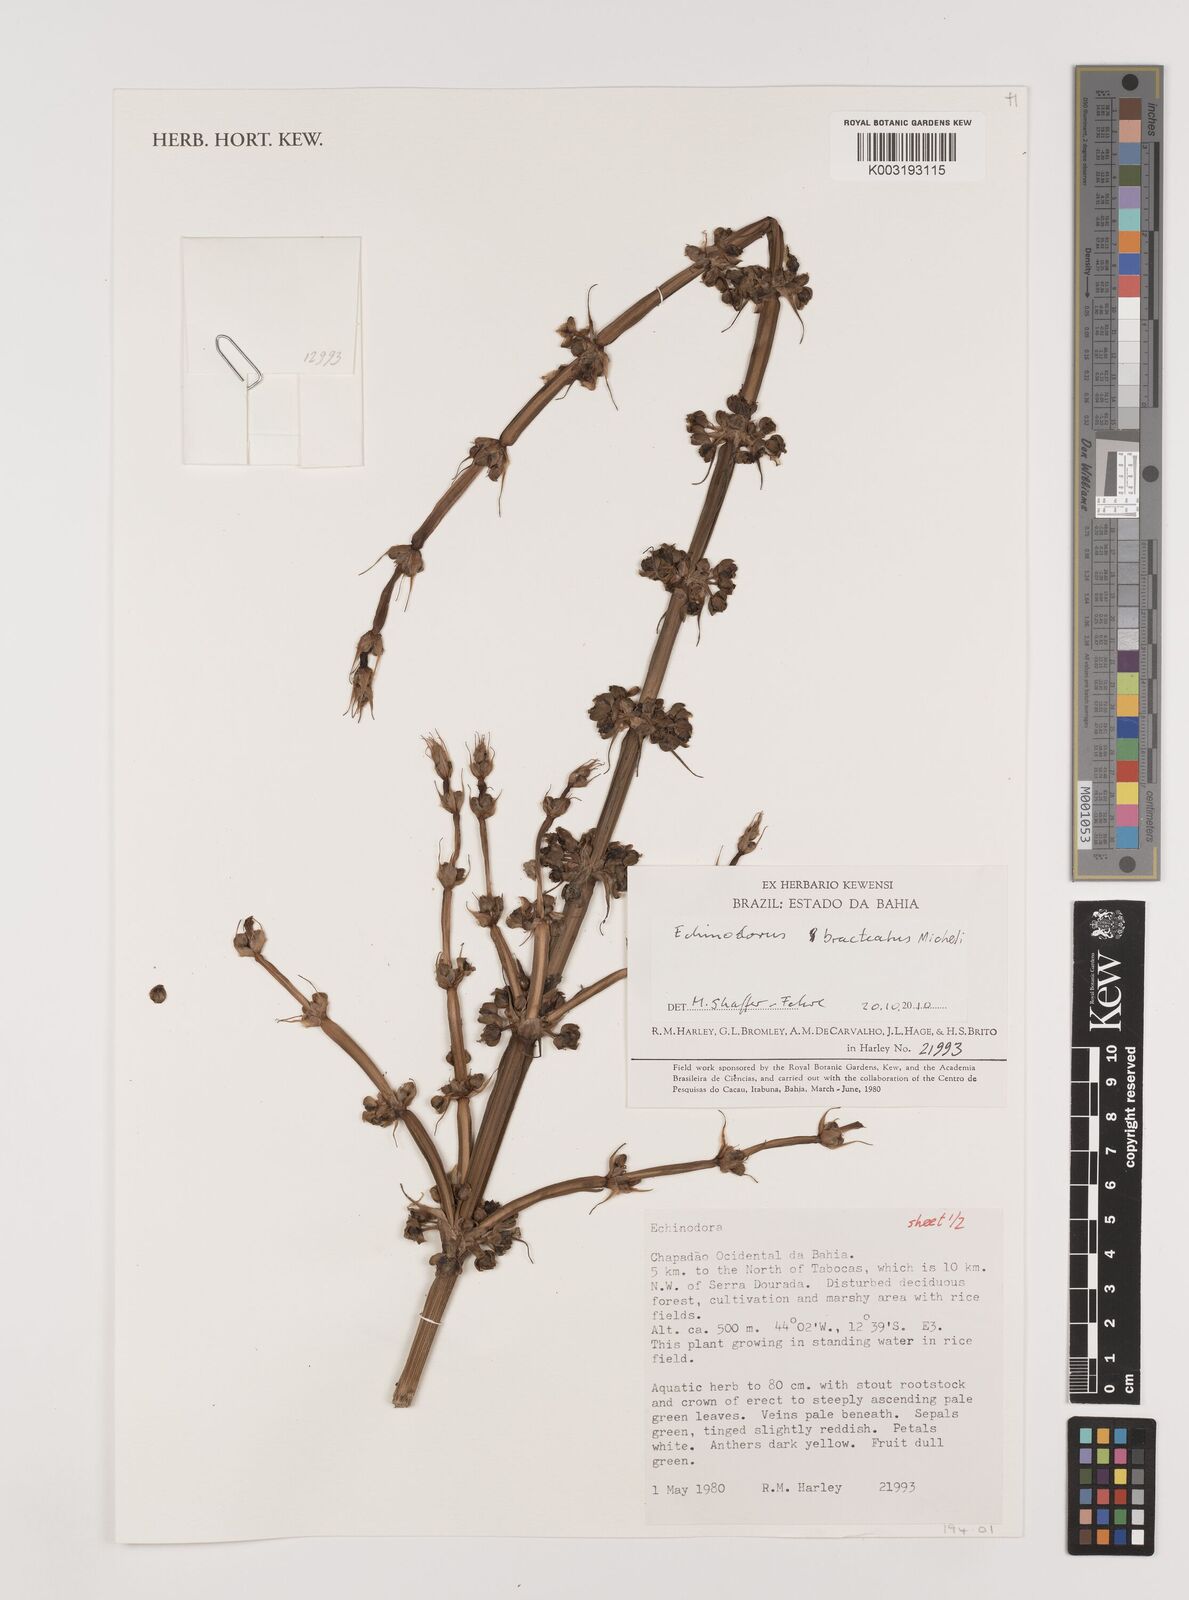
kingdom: Plantae
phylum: Tracheophyta
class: Liliopsida
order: Alismatales
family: Alismataceae
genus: Aquarius
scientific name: Aquarius bracteatus
